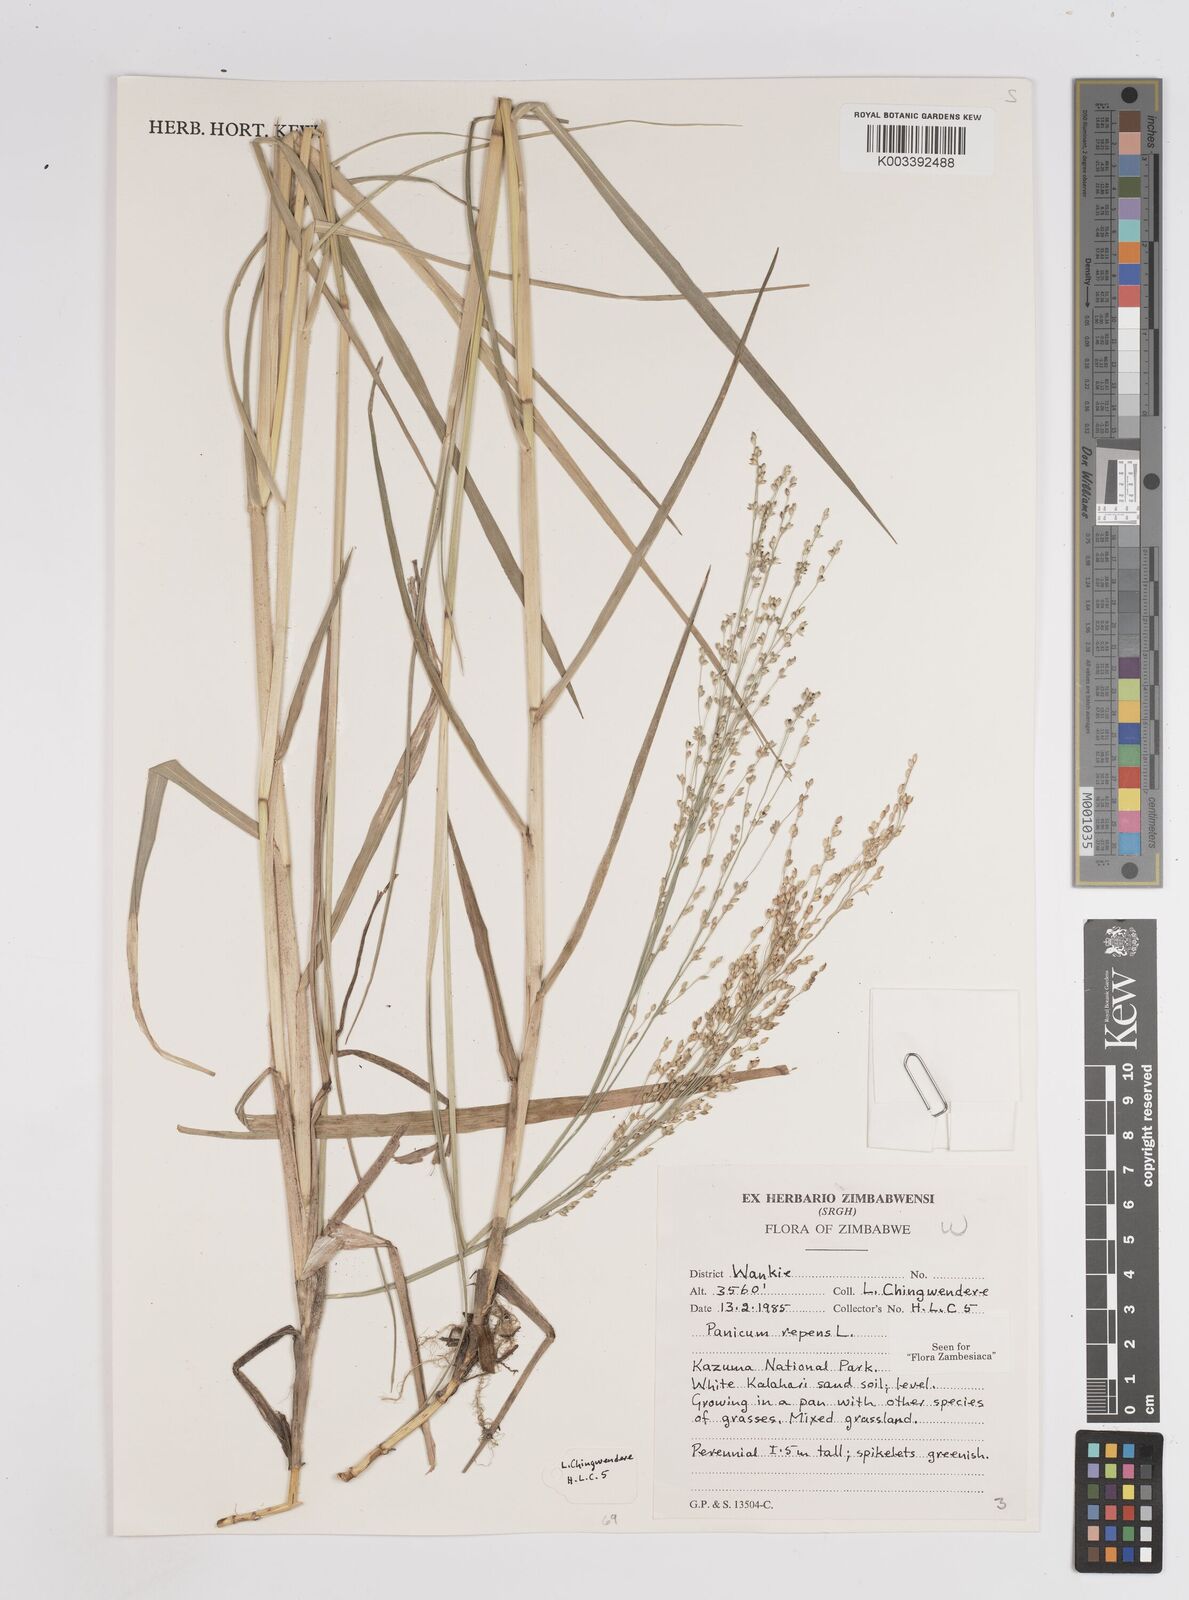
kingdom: Plantae
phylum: Tracheophyta
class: Liliopsida
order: Poales
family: Poaceae
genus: Panicum
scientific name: Panicum repens
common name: Torpedo grass
